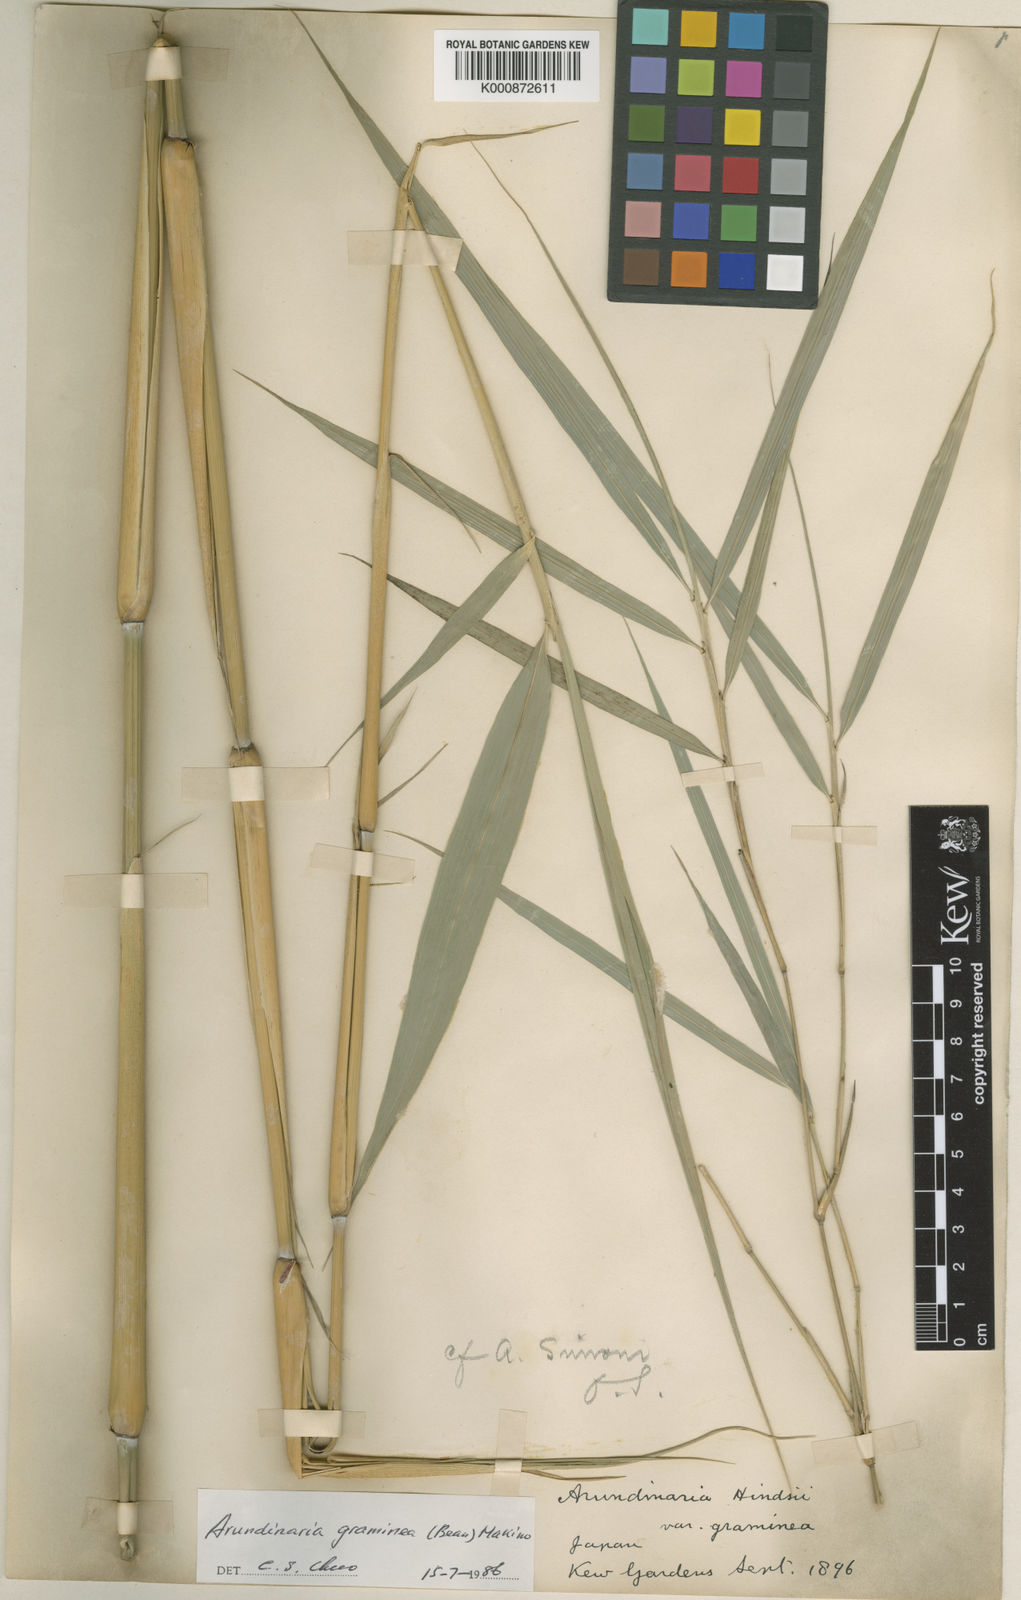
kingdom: Plantae
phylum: Tracheophyta
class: Liliopsida
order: Poales
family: Poaceae
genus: Pleioblastus
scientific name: Pleioblastus gramineus
